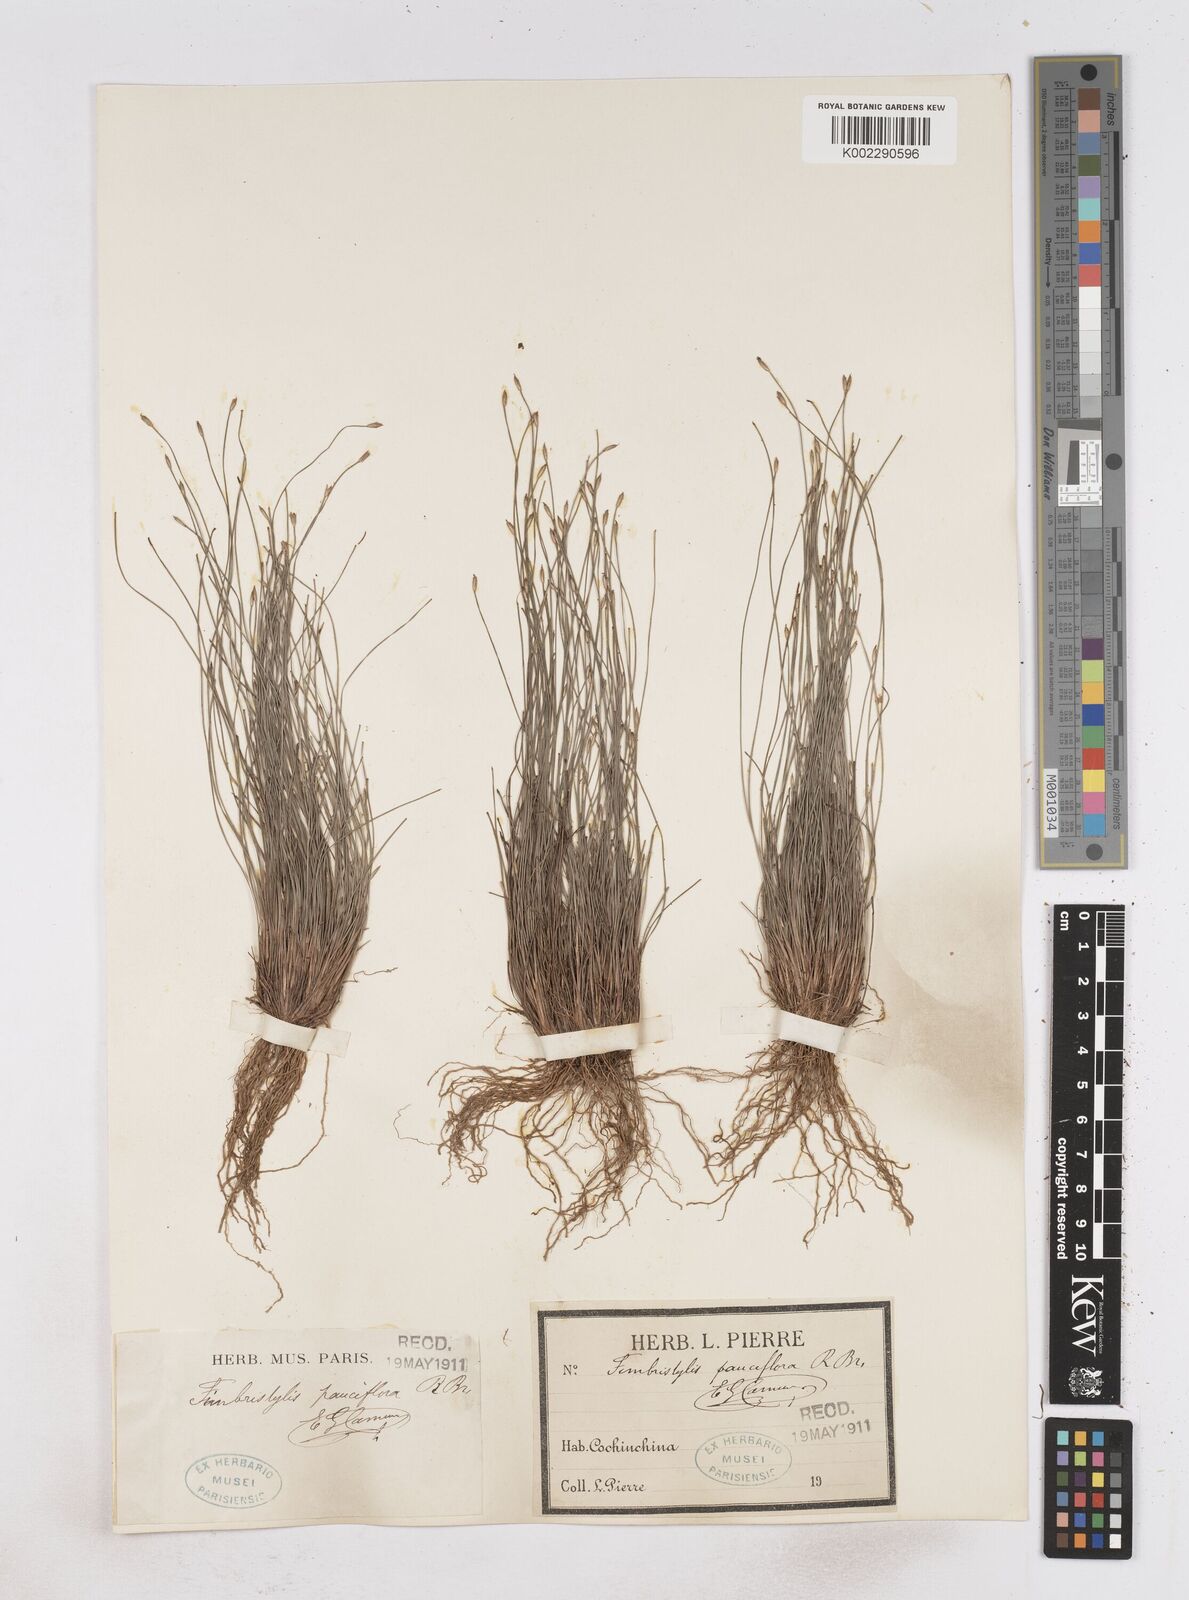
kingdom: Plantae
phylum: Tracheophyta
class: Liliopsida
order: Poales
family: Cyperaceae
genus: Fimbristylis
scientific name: Fimbristylis pauciflora
